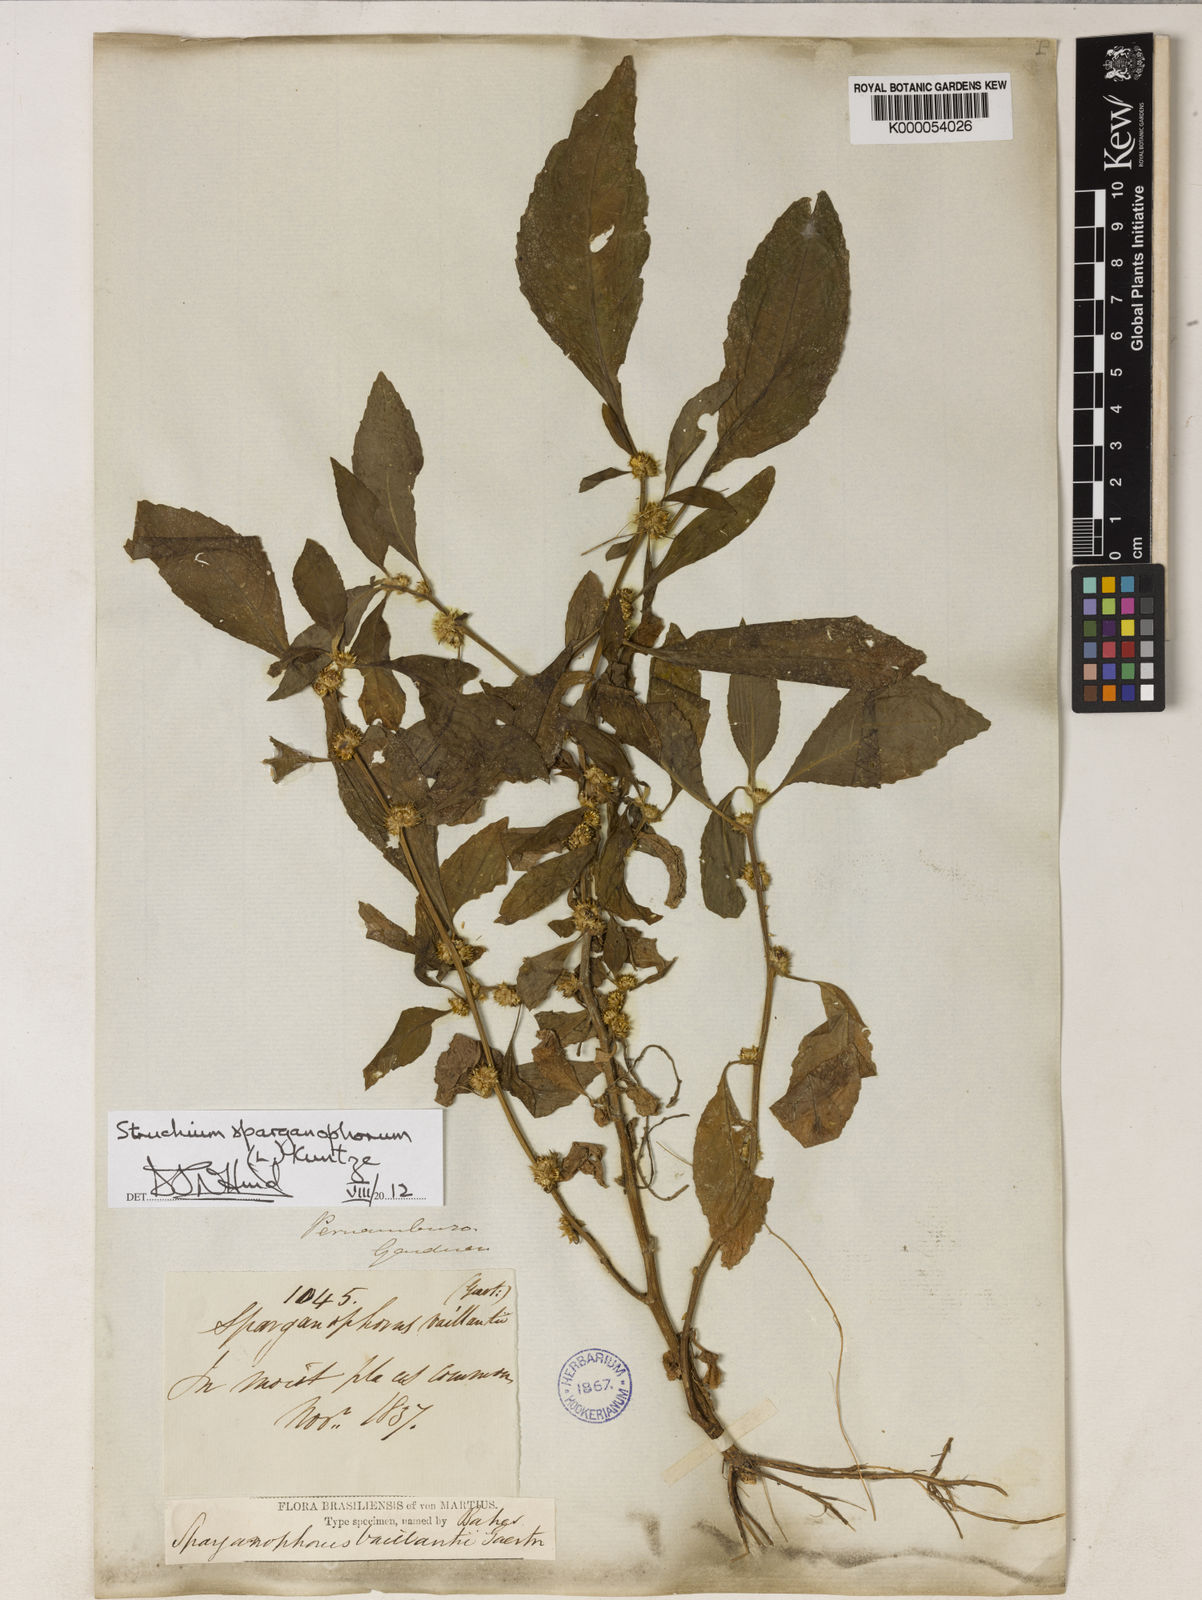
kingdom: Plantae
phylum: Tracheophyta
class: Magnoliopsida
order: Asterales
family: Asteraceae
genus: Struchium
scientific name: Struchium sparganophorum
